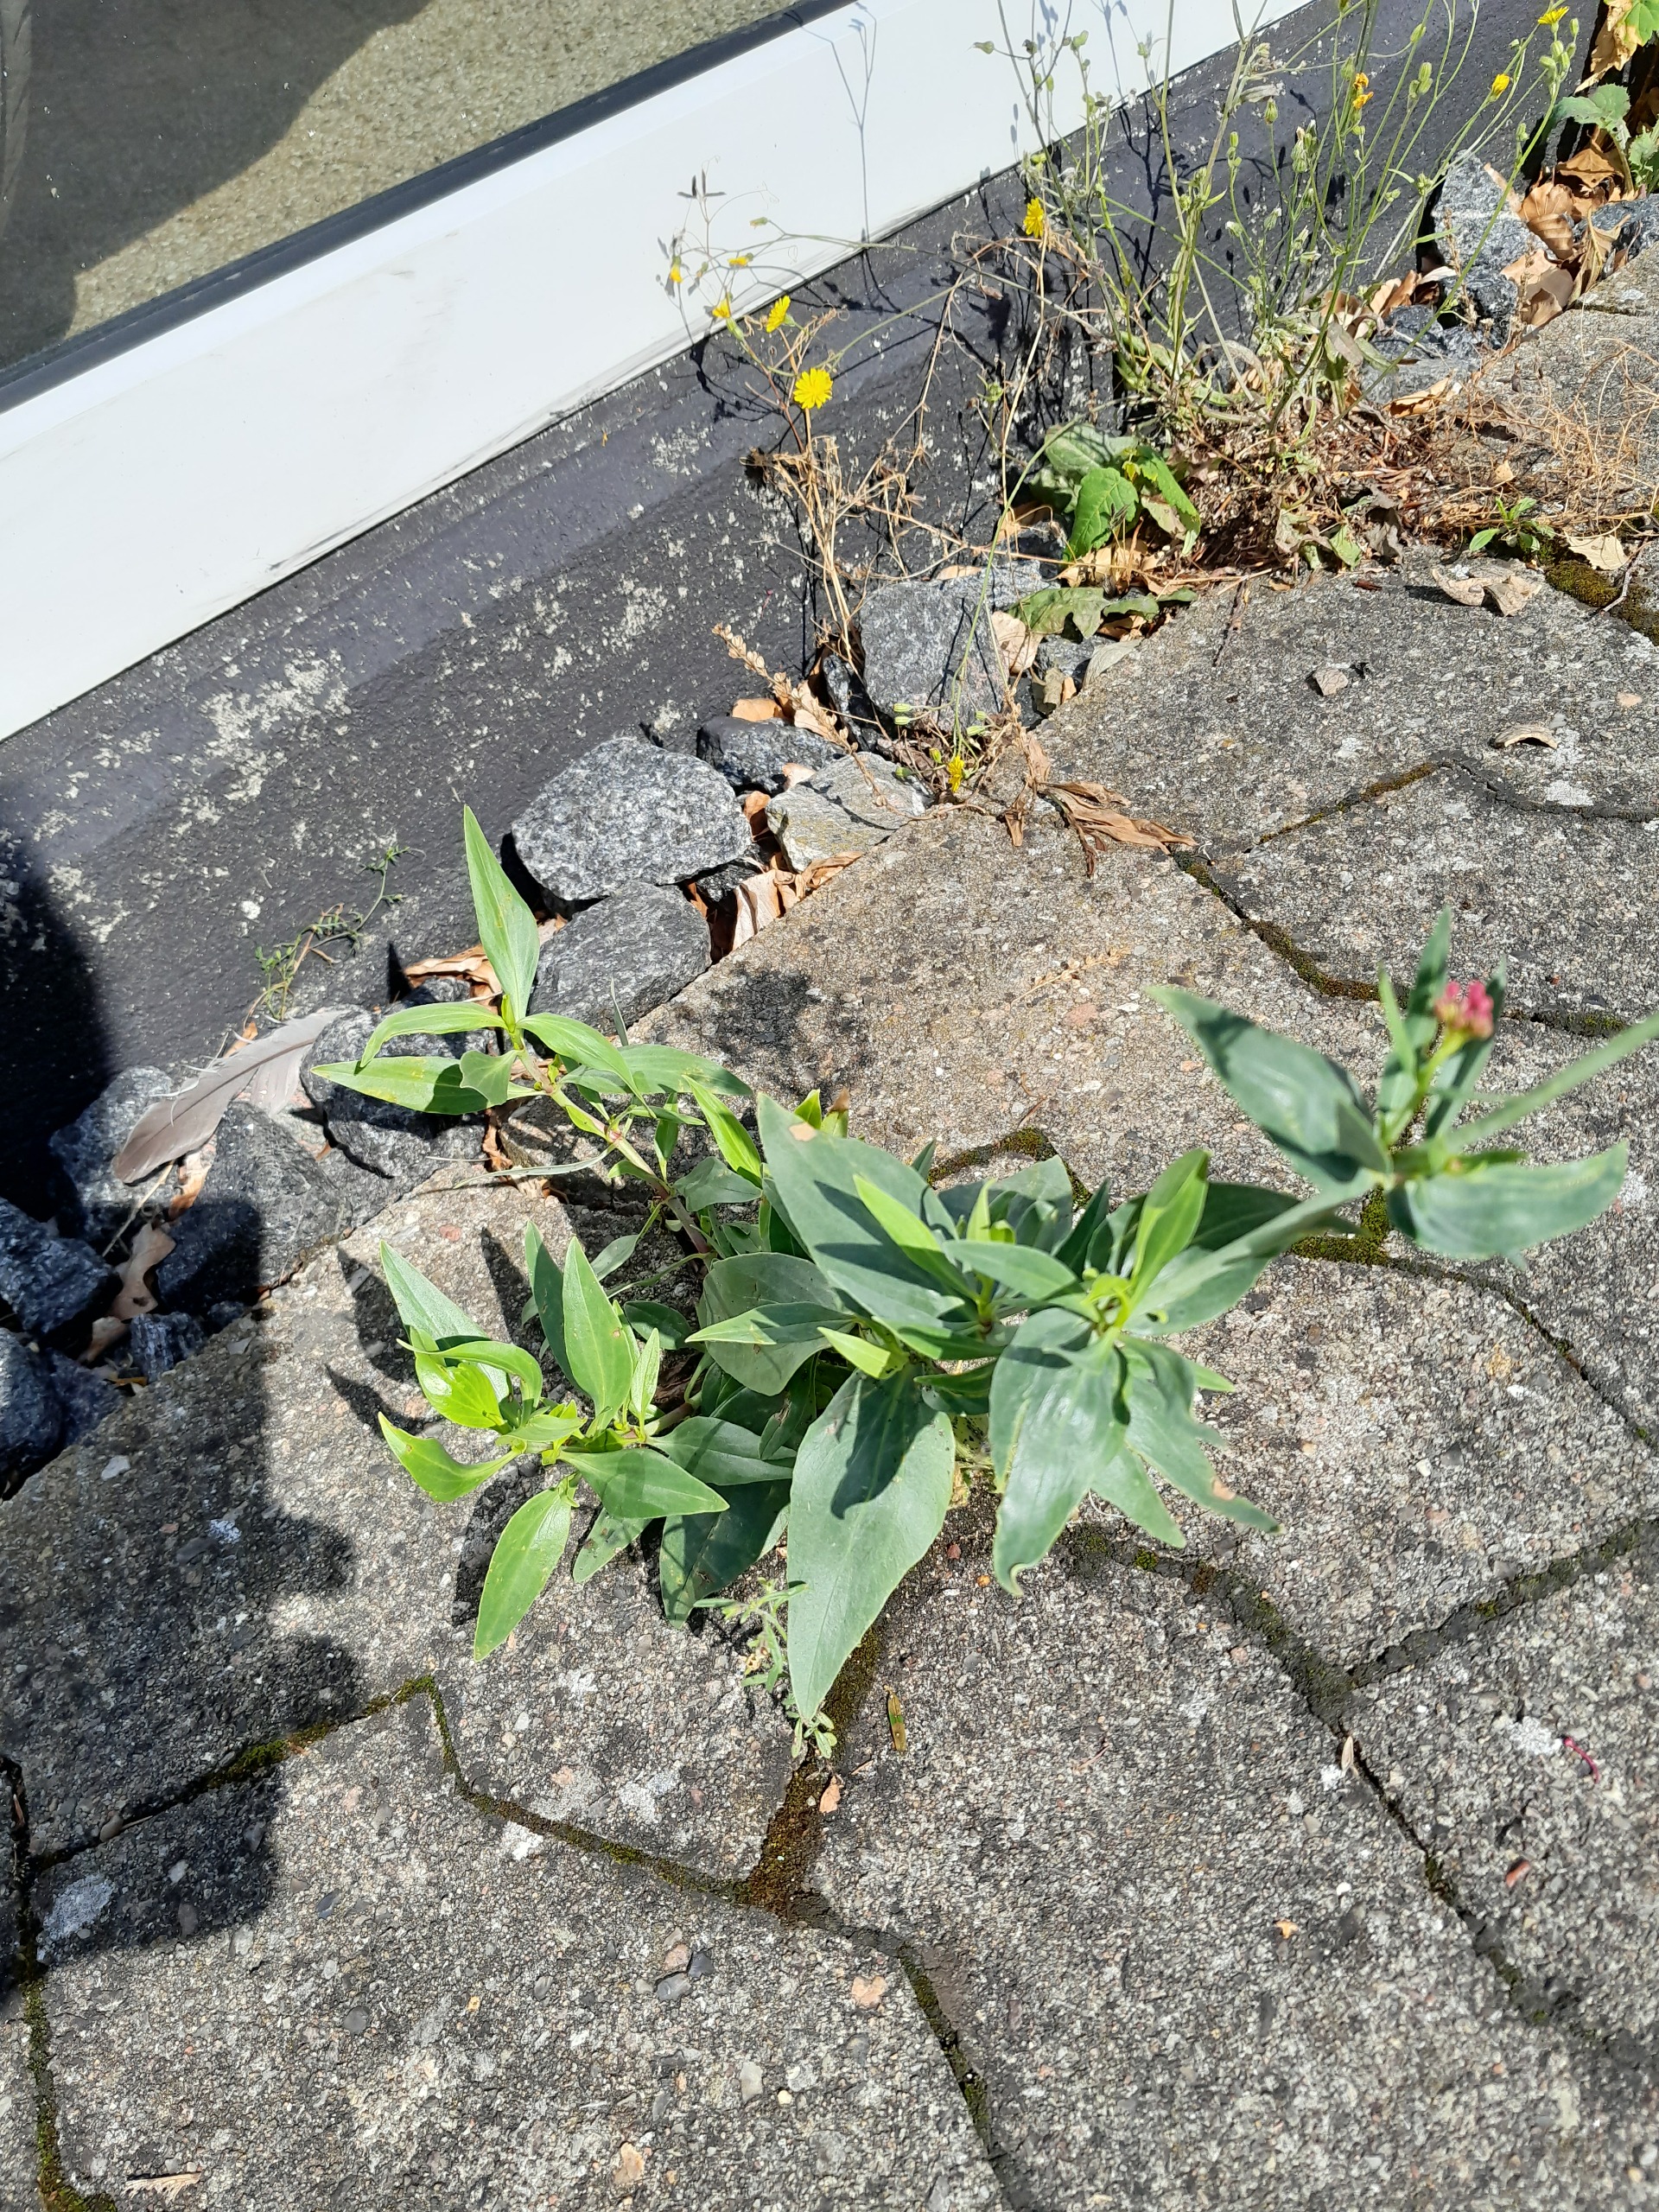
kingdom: Plantae
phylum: Tracheophyta
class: Magnoliopsida
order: Dipsacales
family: Caprifoliaceae
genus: Centranthus
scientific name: Centranthus ruber
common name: Sporebaldrian
